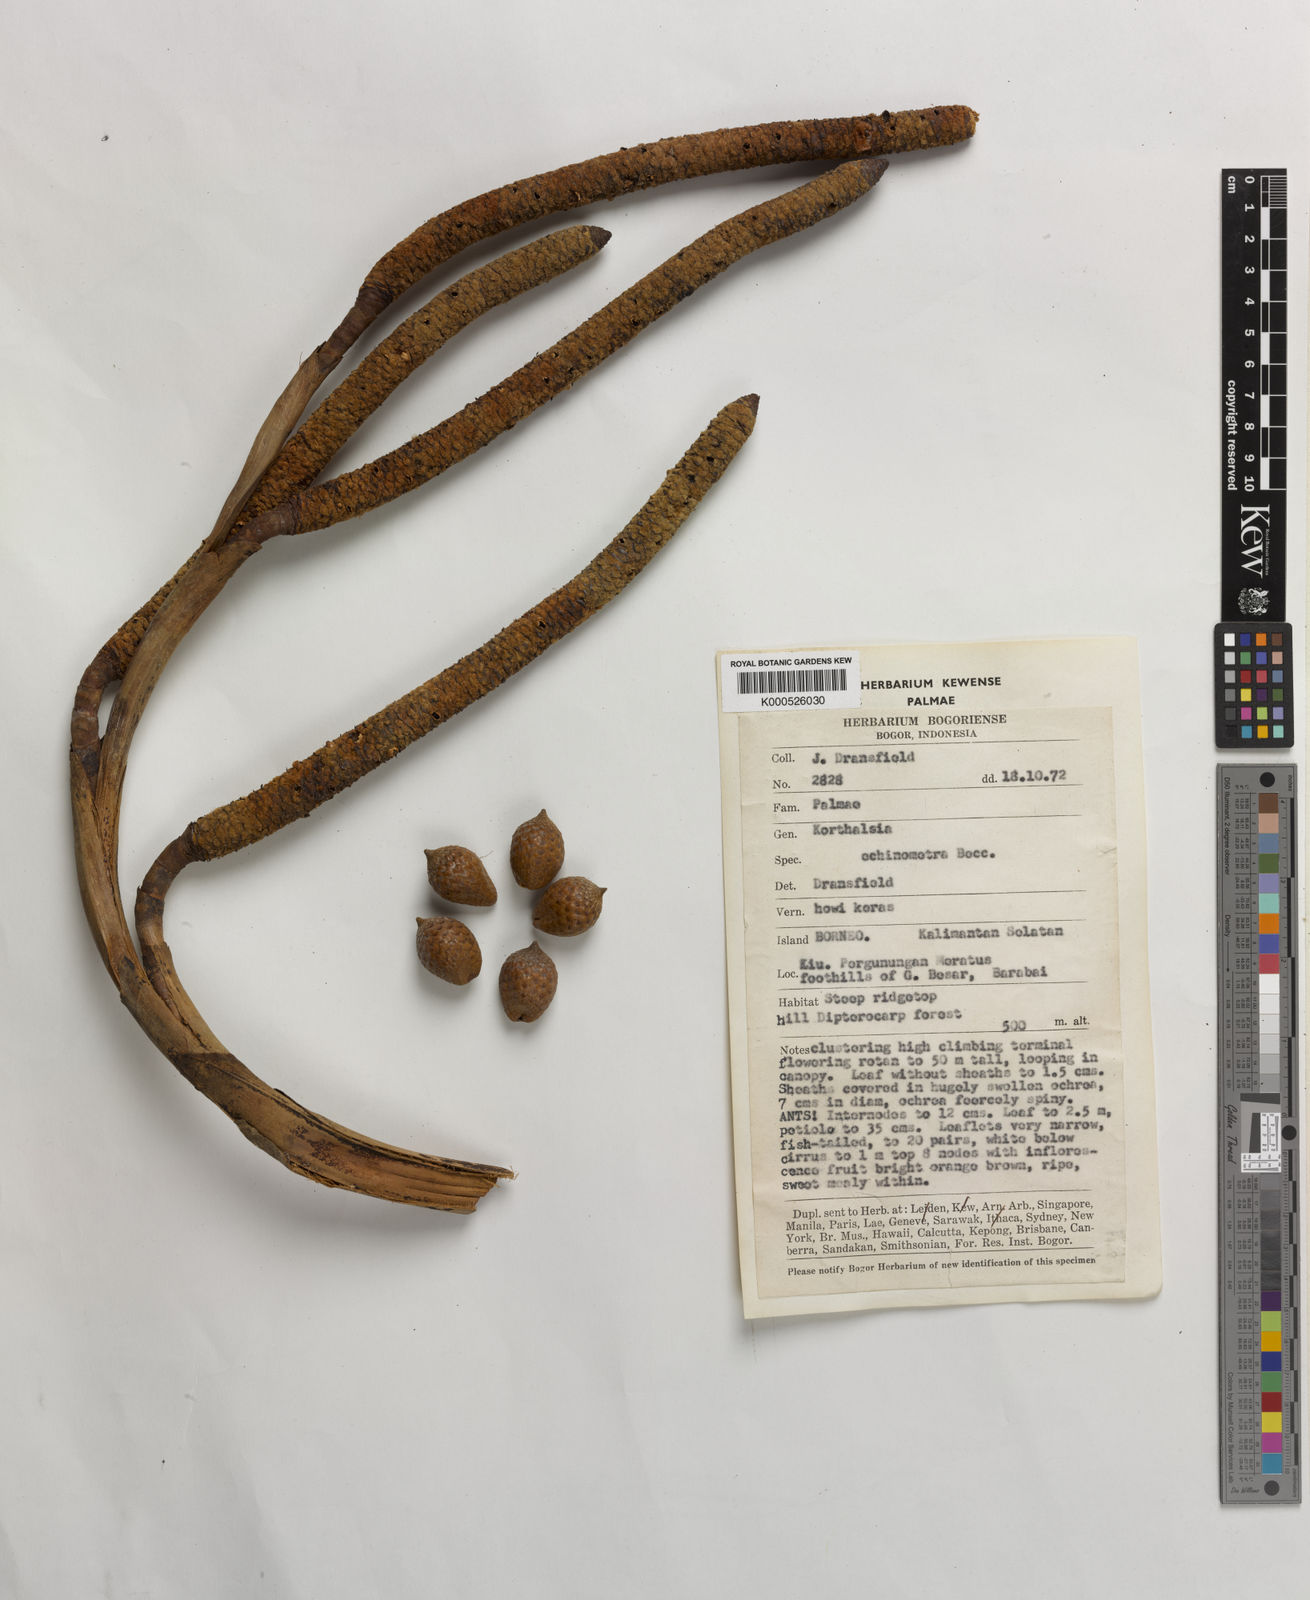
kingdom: Plantae
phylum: Tracheophyta
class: Liliopsida
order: Arecales
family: Arecaceae
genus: Korthalsia
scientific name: Korthalsia echinometra
